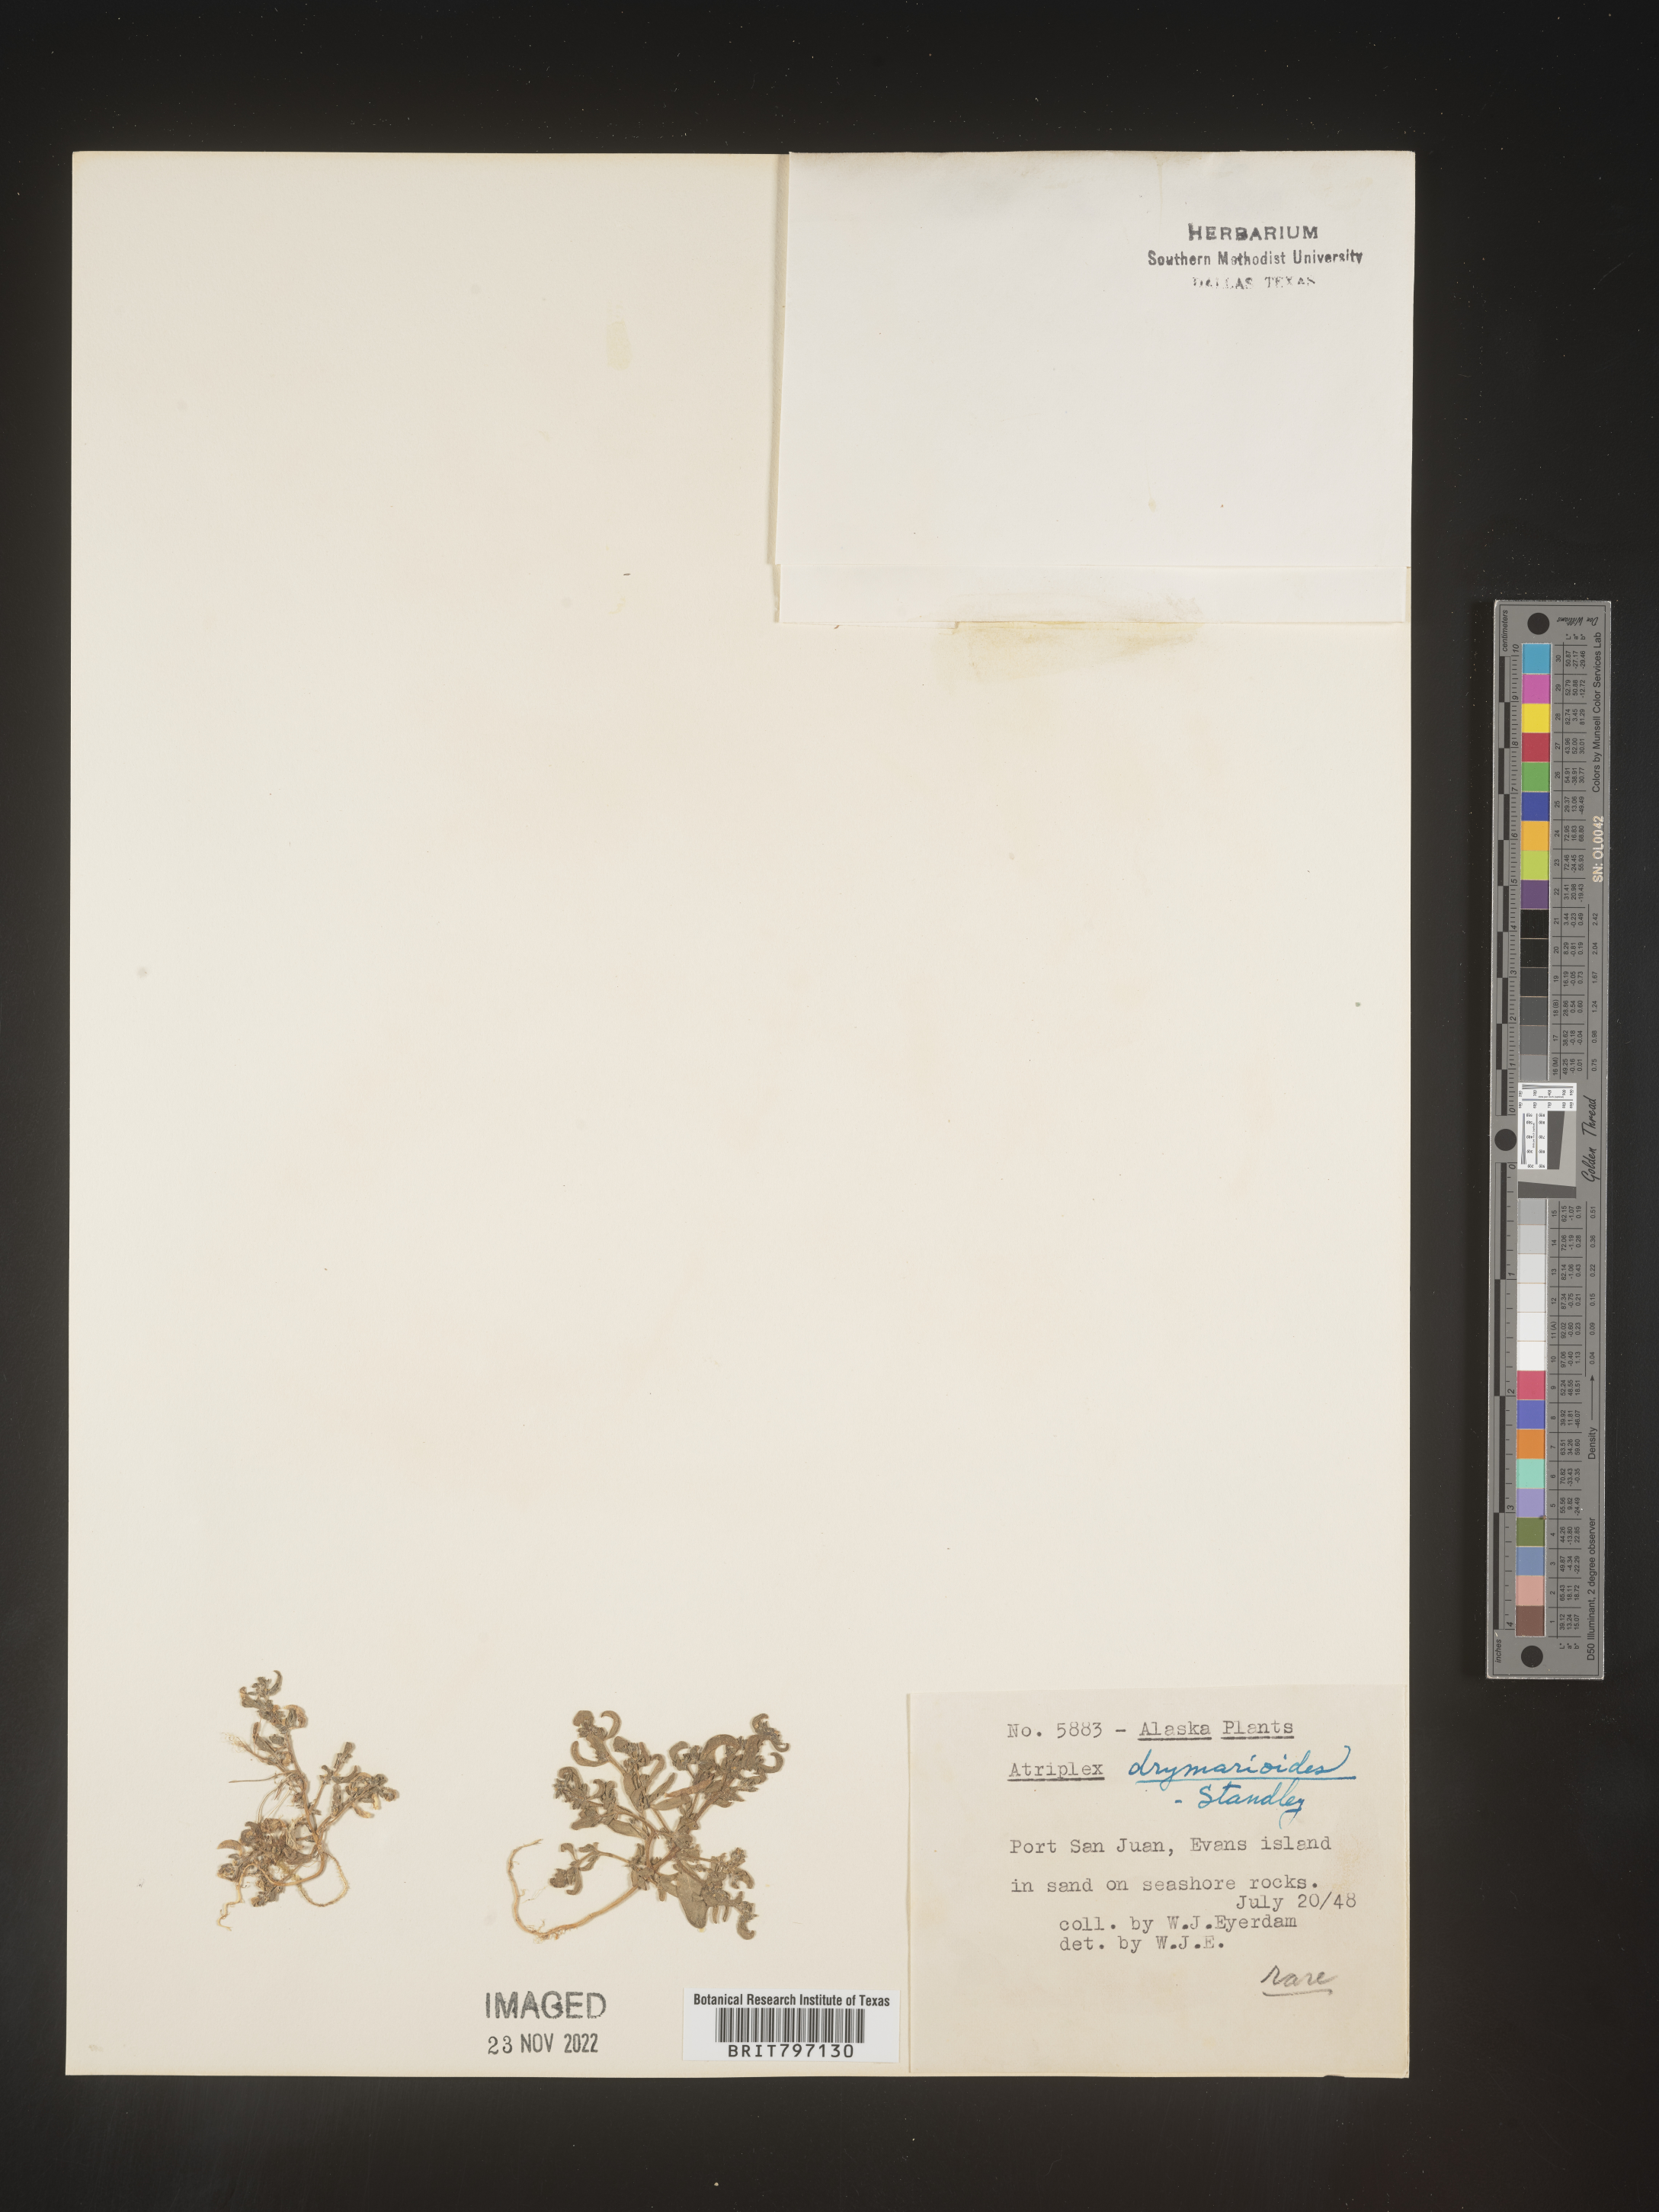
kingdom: Plantae
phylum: Tracheophyta
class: Magnoliopsida
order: Caryophyllales
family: Amaranthaceae
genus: Atriplex
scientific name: Atriplex
